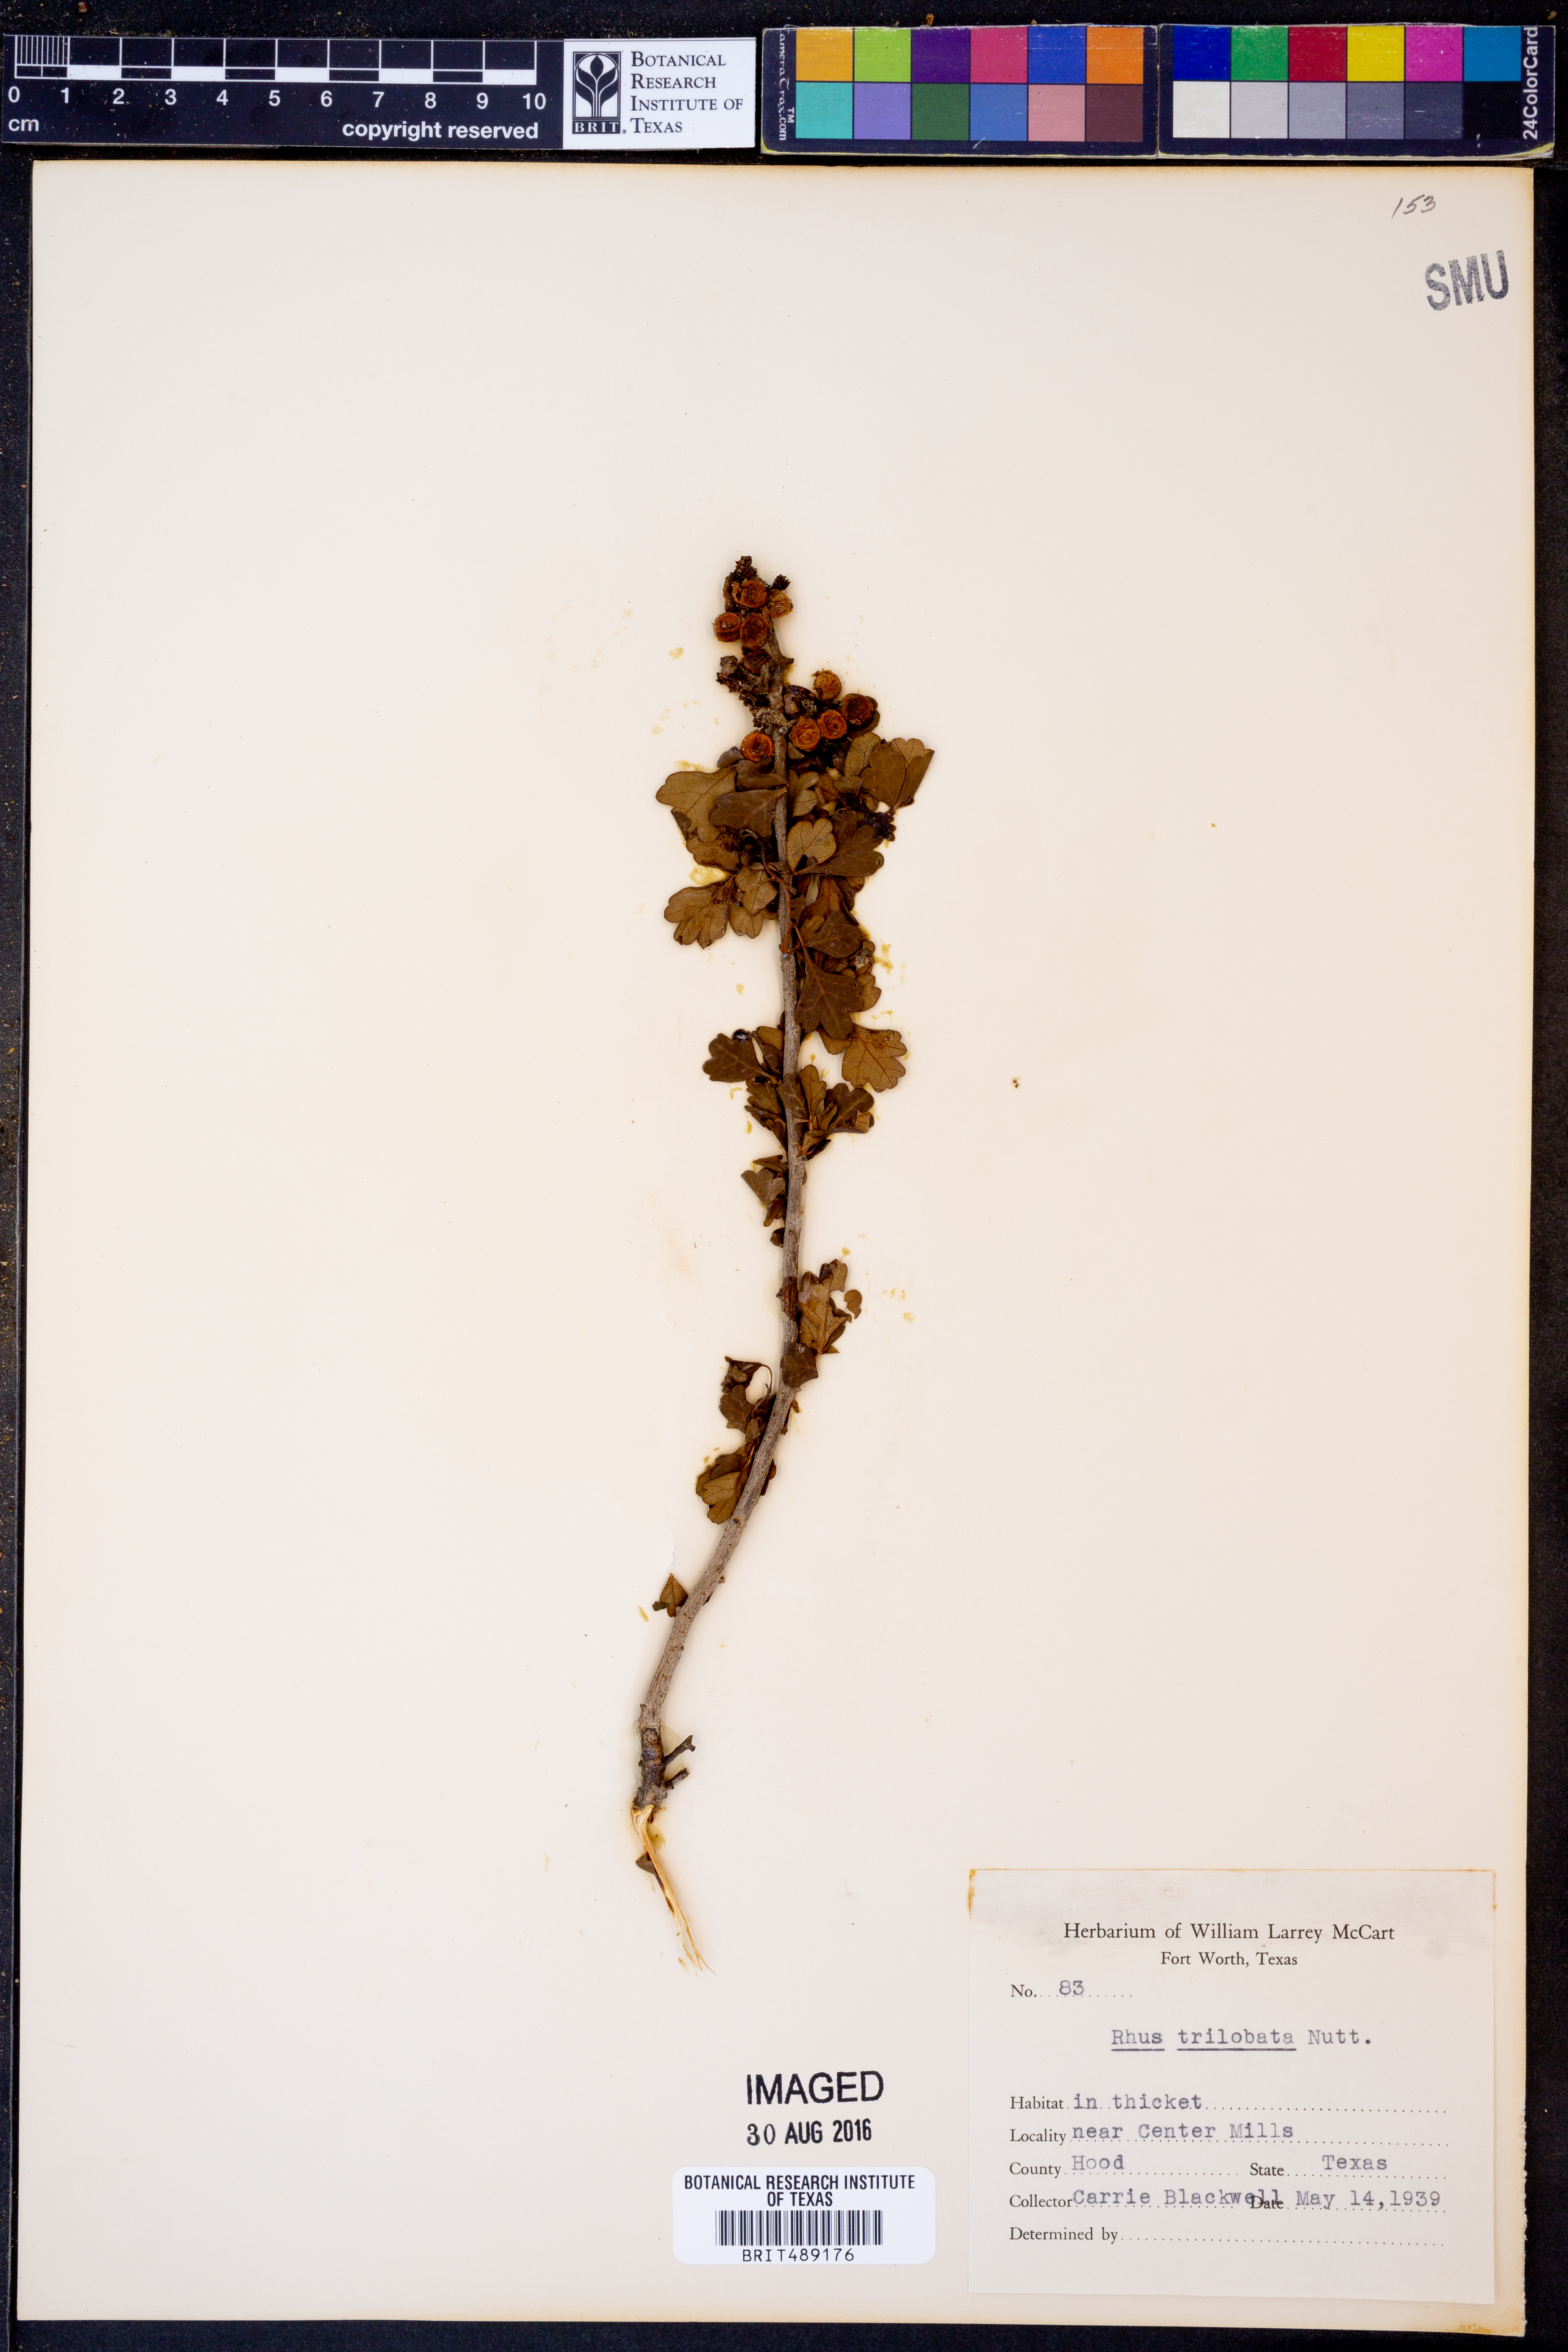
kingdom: Plantae
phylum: Tracheophyta
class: Magnoliopsida
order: Sapindales
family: Anacardiaceae
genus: Rhus
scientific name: Rhus trilobata
